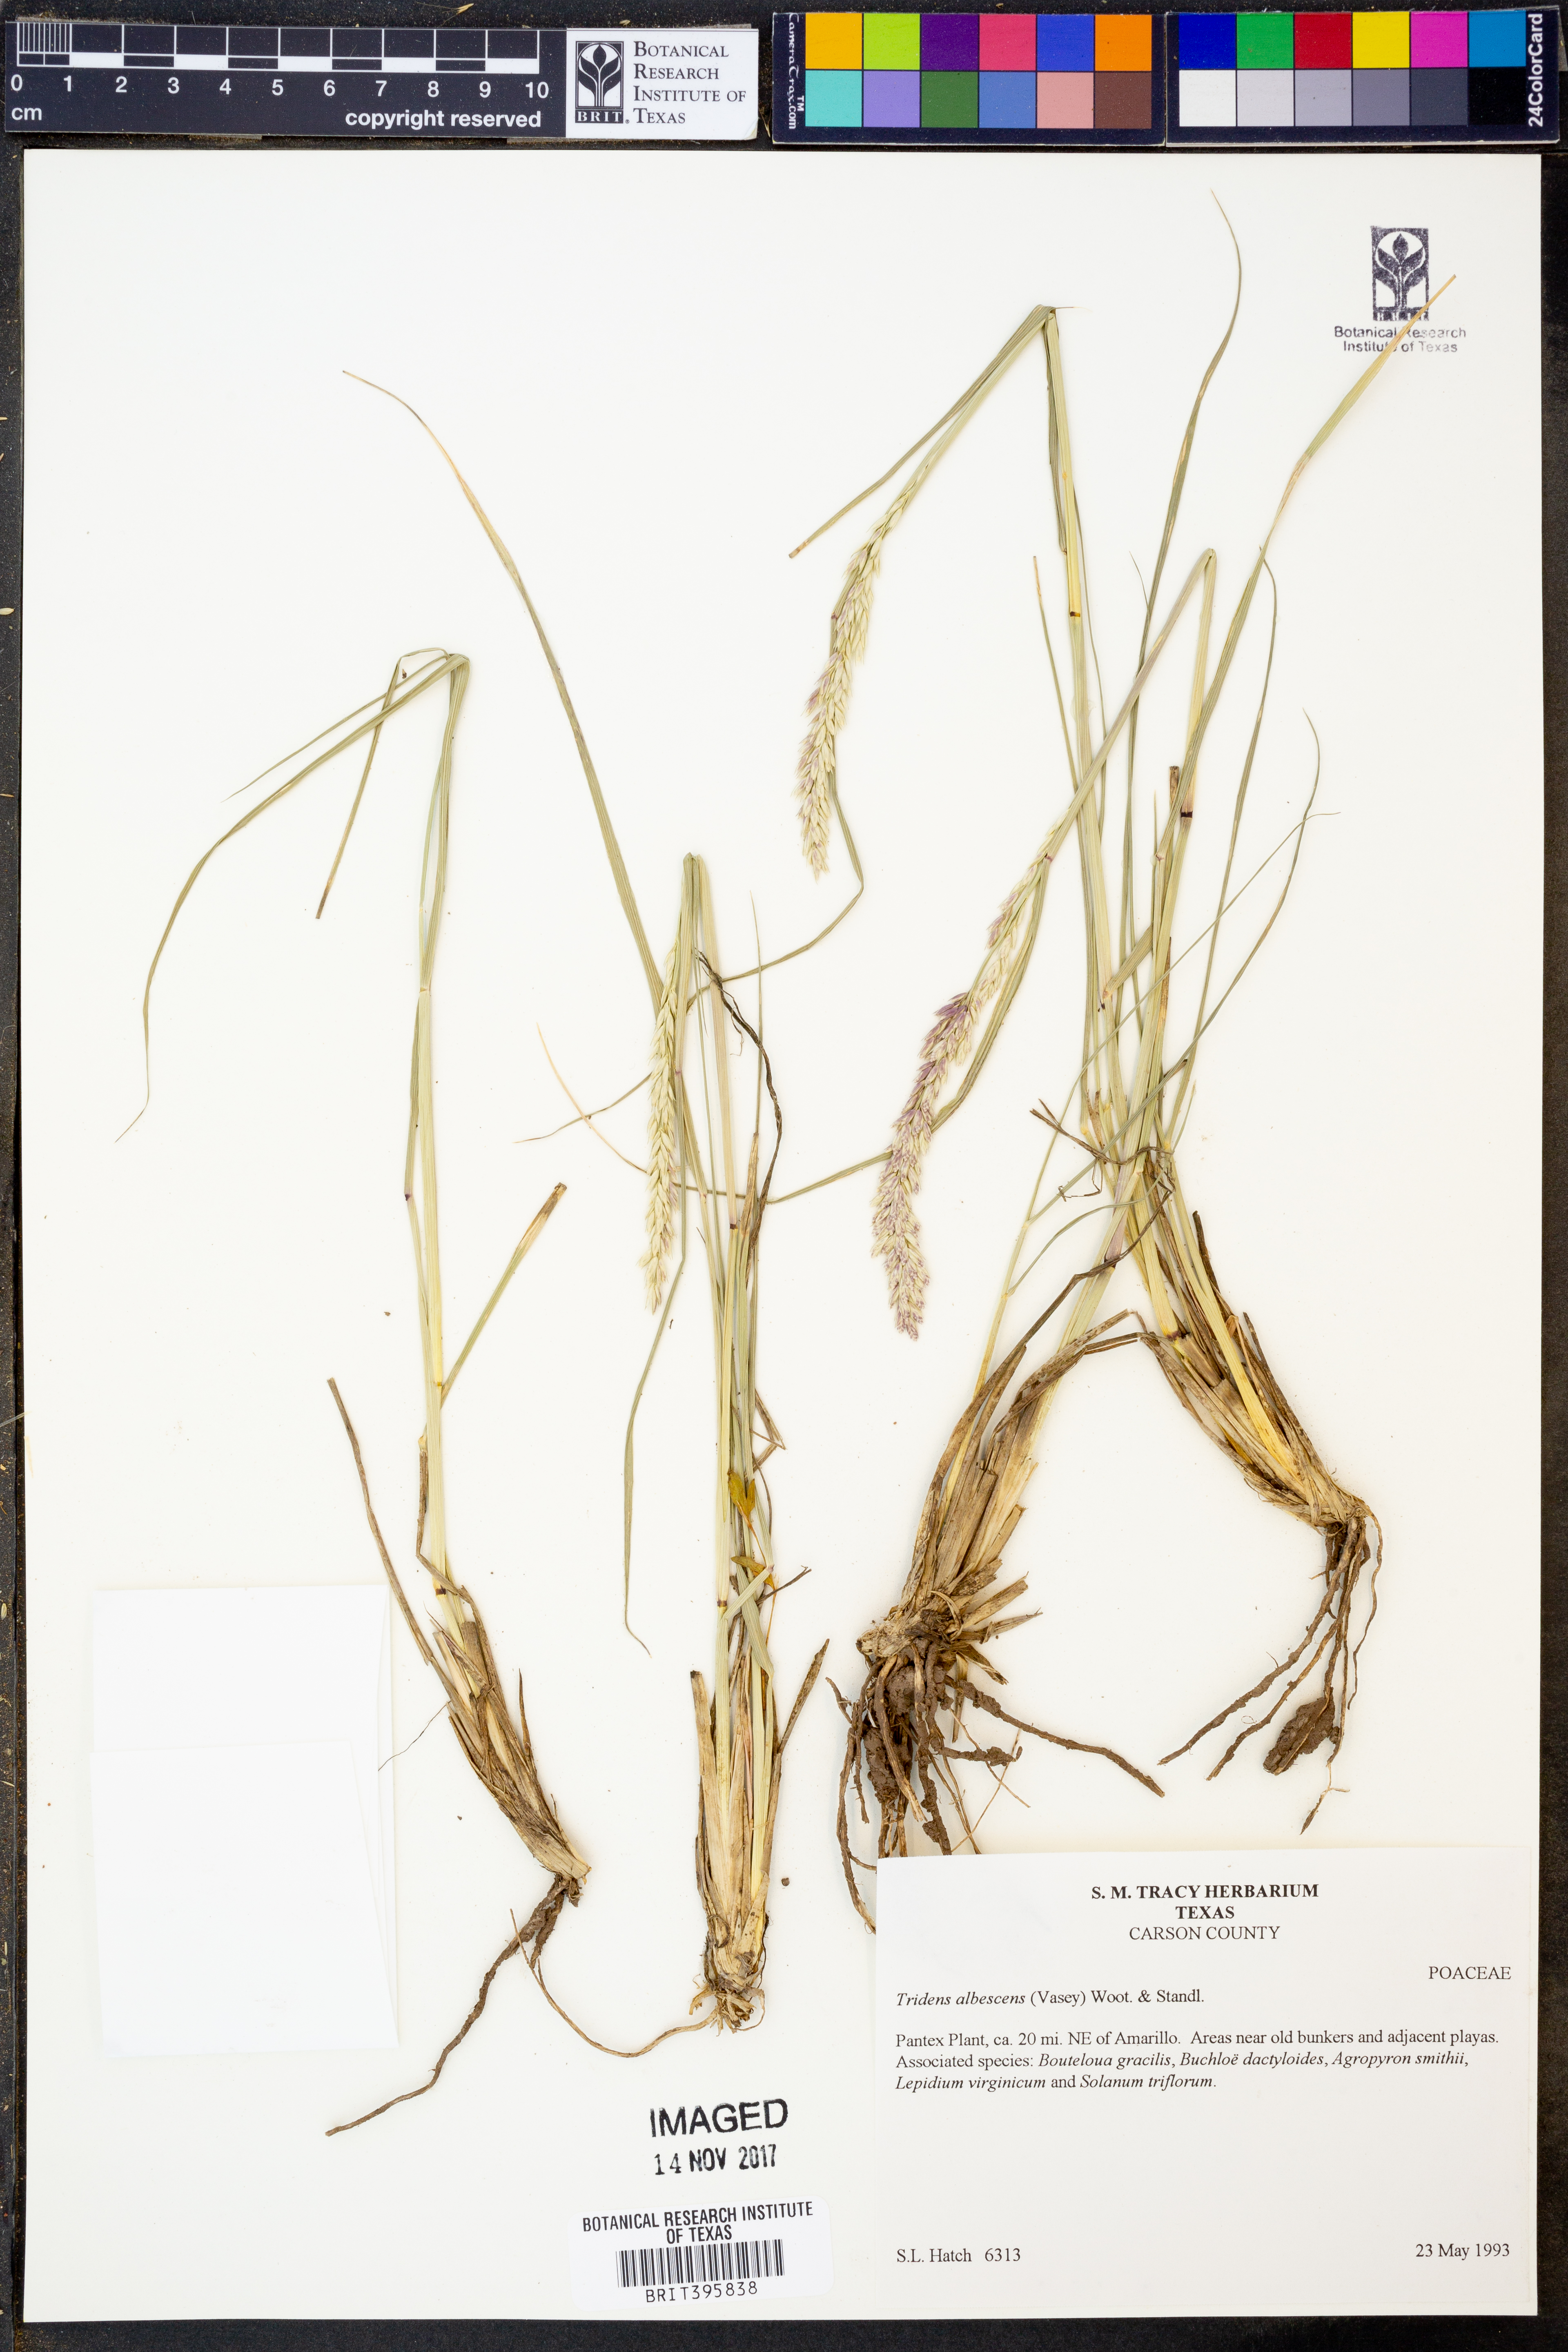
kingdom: Plantae
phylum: Tracheophyta
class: Liliopsida
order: Poales
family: Poaceae
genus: Tridens
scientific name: Tridens albescens
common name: White tridens
